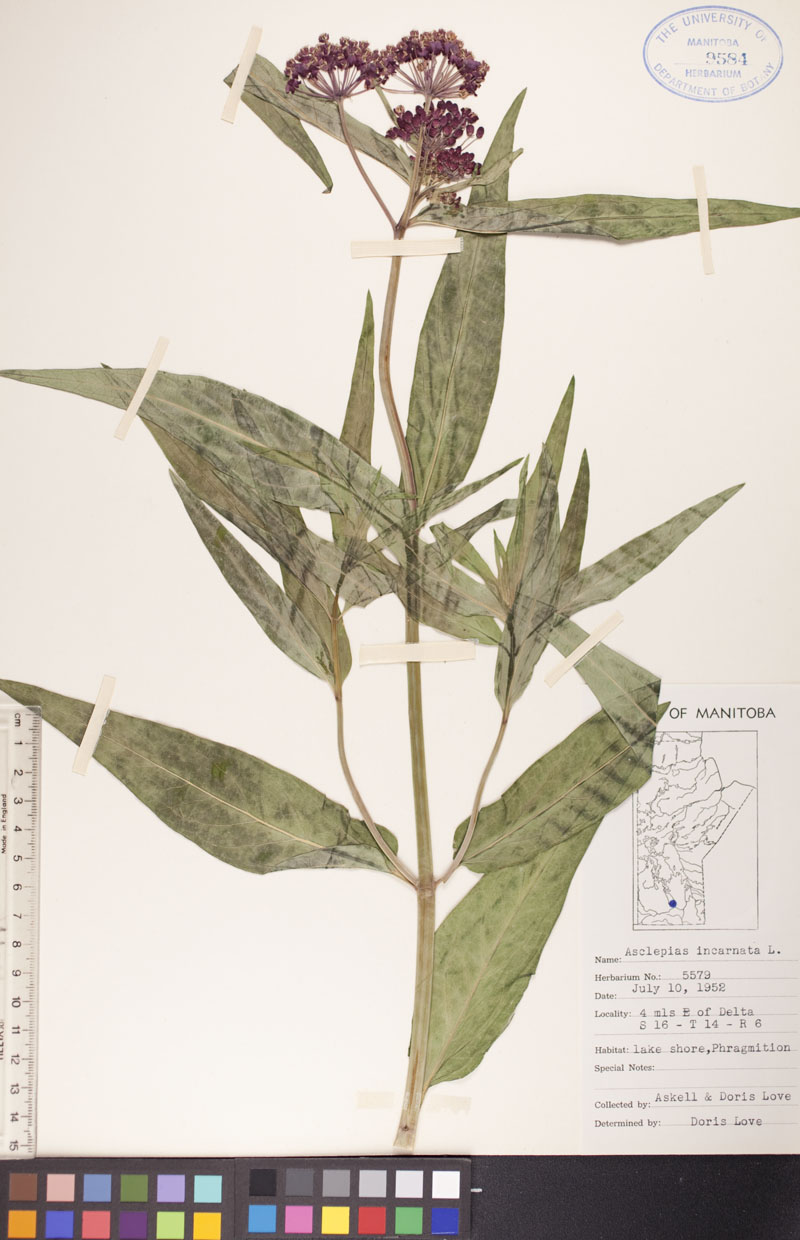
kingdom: Plantae
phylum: Tracheophyta
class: Magnoliopsida
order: Gentianales
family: Apocynaceae
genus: Asclepias
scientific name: Asclepias incarnata
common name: Swamp milkweed
